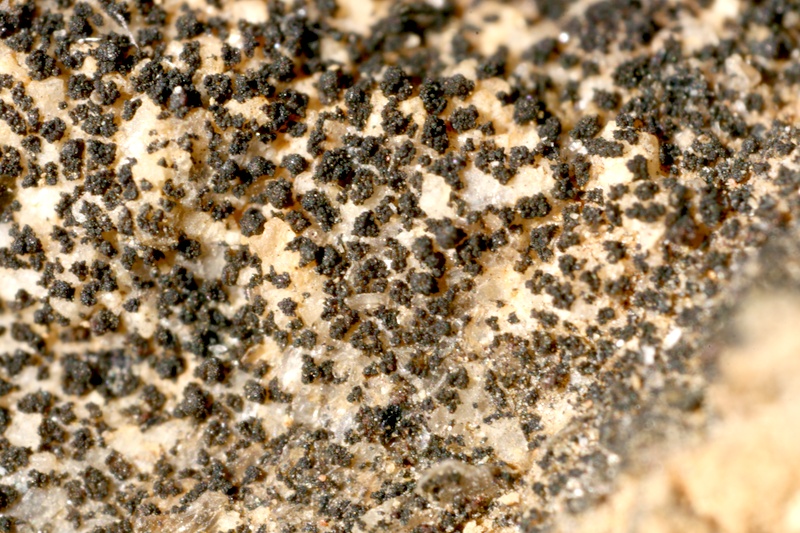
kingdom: Fungi
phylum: Ascomycota
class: Lichinomycetes
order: Lichinales
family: Lichinaceae
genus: Pyrenocarpon
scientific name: Pyrenocarpon Thelochroa montinii
